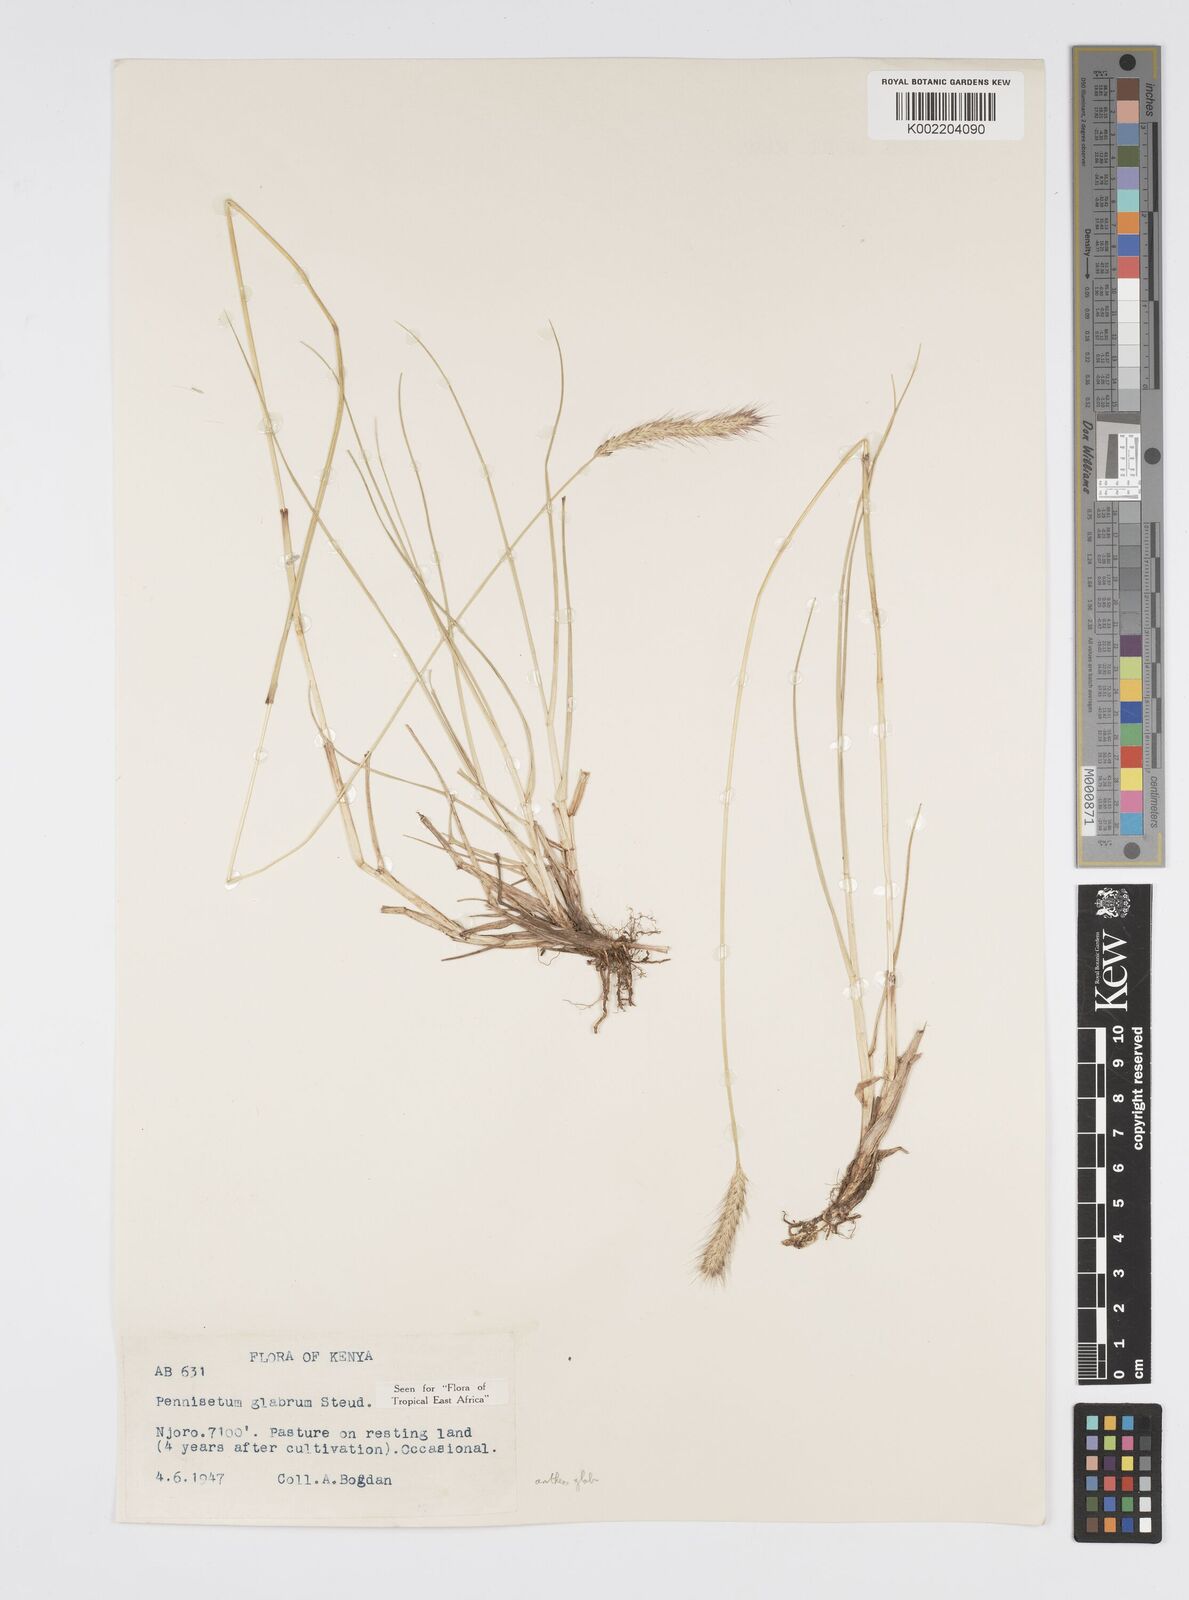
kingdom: Plantae
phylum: Tracheophyta
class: Liliopsida
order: Poales
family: Poaceae
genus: Cenchrus
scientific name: Cenchrus geniculatus
